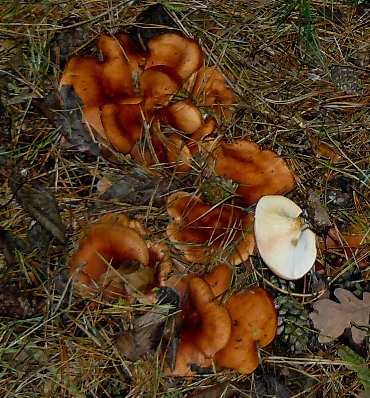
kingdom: Fungi
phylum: Basidiomycota
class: Agaricomycetes
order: Agaricales
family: Tricholomataceae
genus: Paralepista
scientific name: Paralepista flaccida
